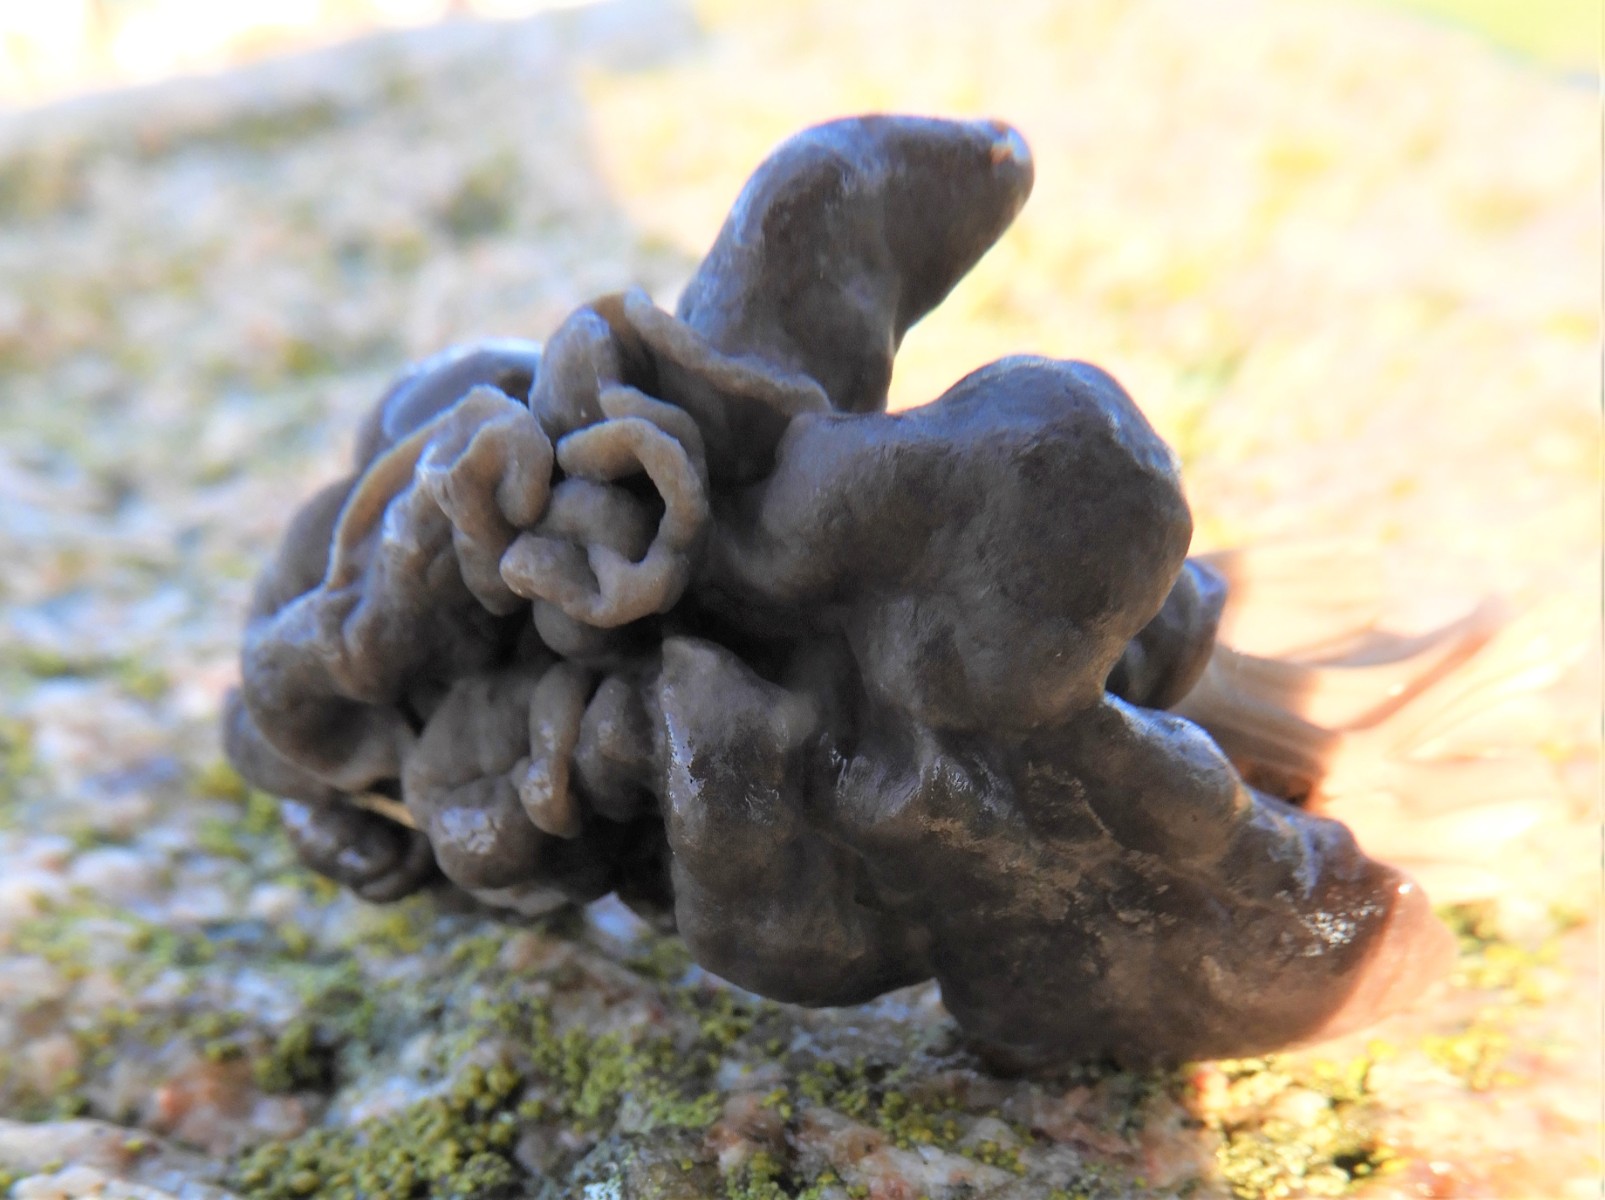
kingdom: Fungi
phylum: Ascomycota
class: Pezizomycetes
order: Pezizales
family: Helvellaceae
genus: Helvella
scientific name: Helvella lacunosa
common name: grubet foldhat
